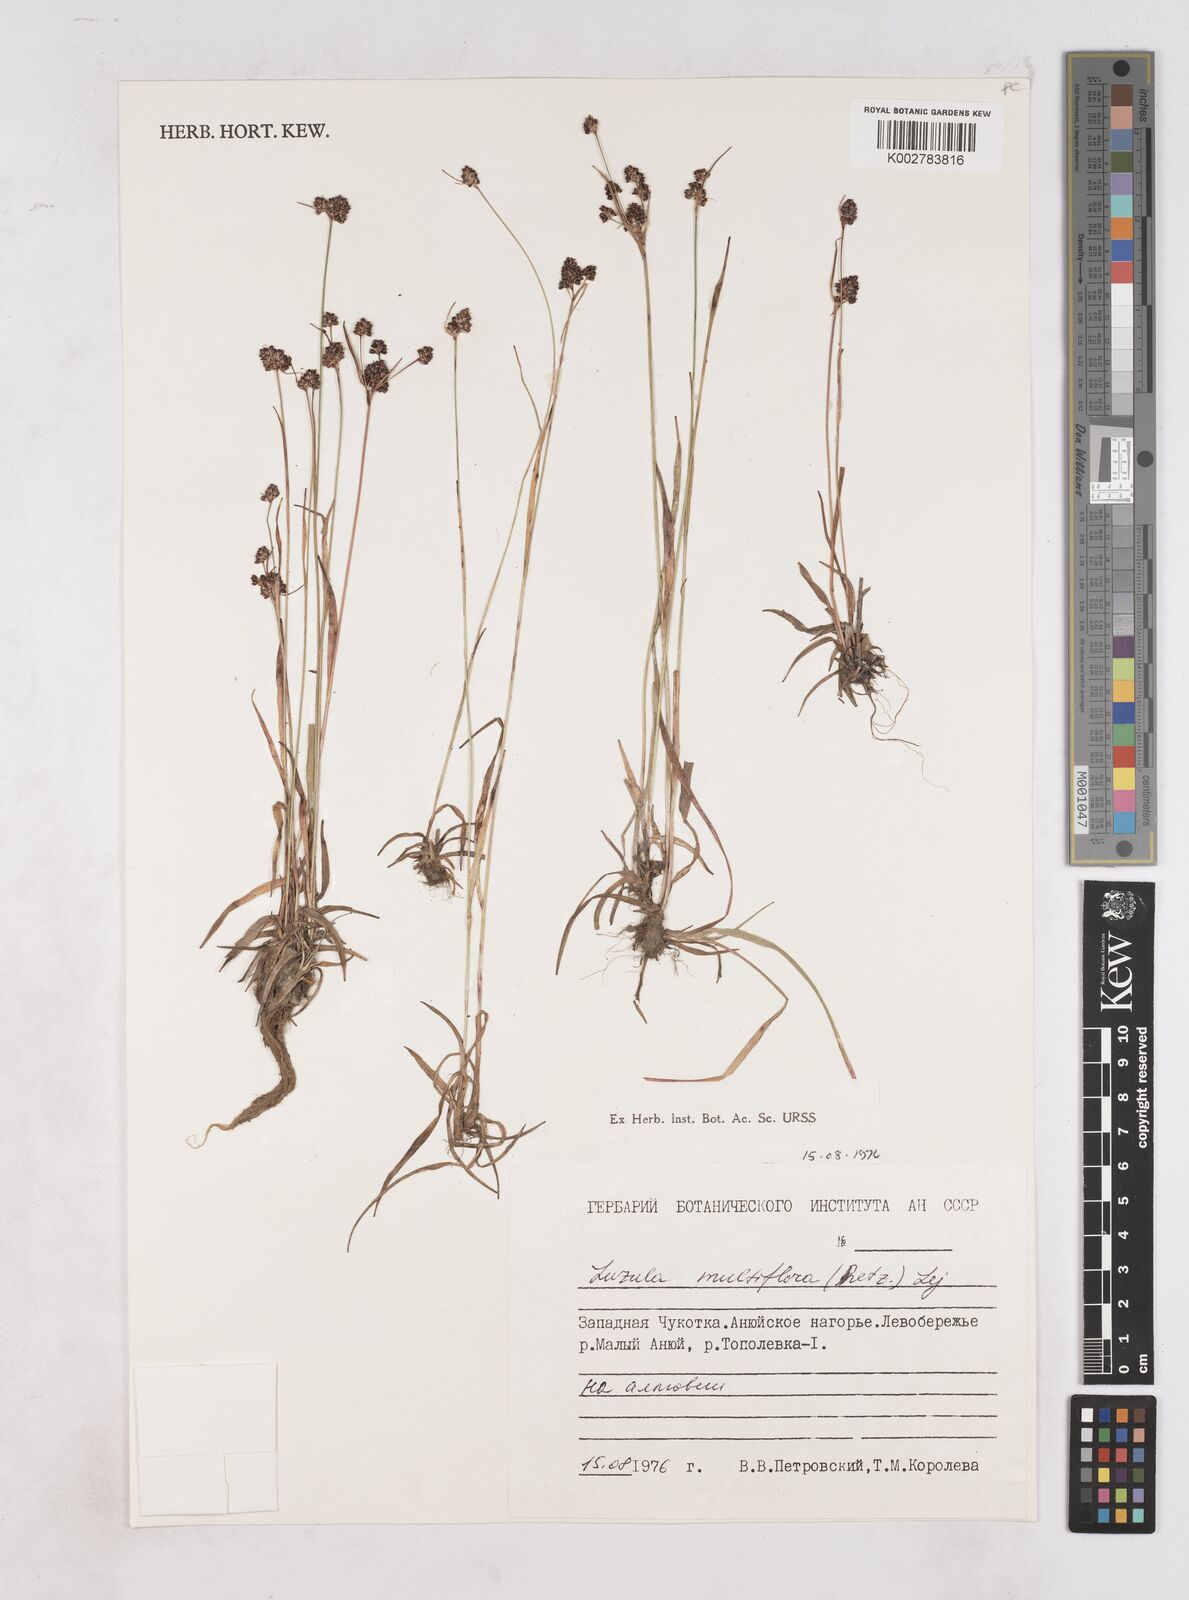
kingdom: Plantae
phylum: Tracheophyta
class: Liliopsida
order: Poales
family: Juncaceae
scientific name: Juncaceae
